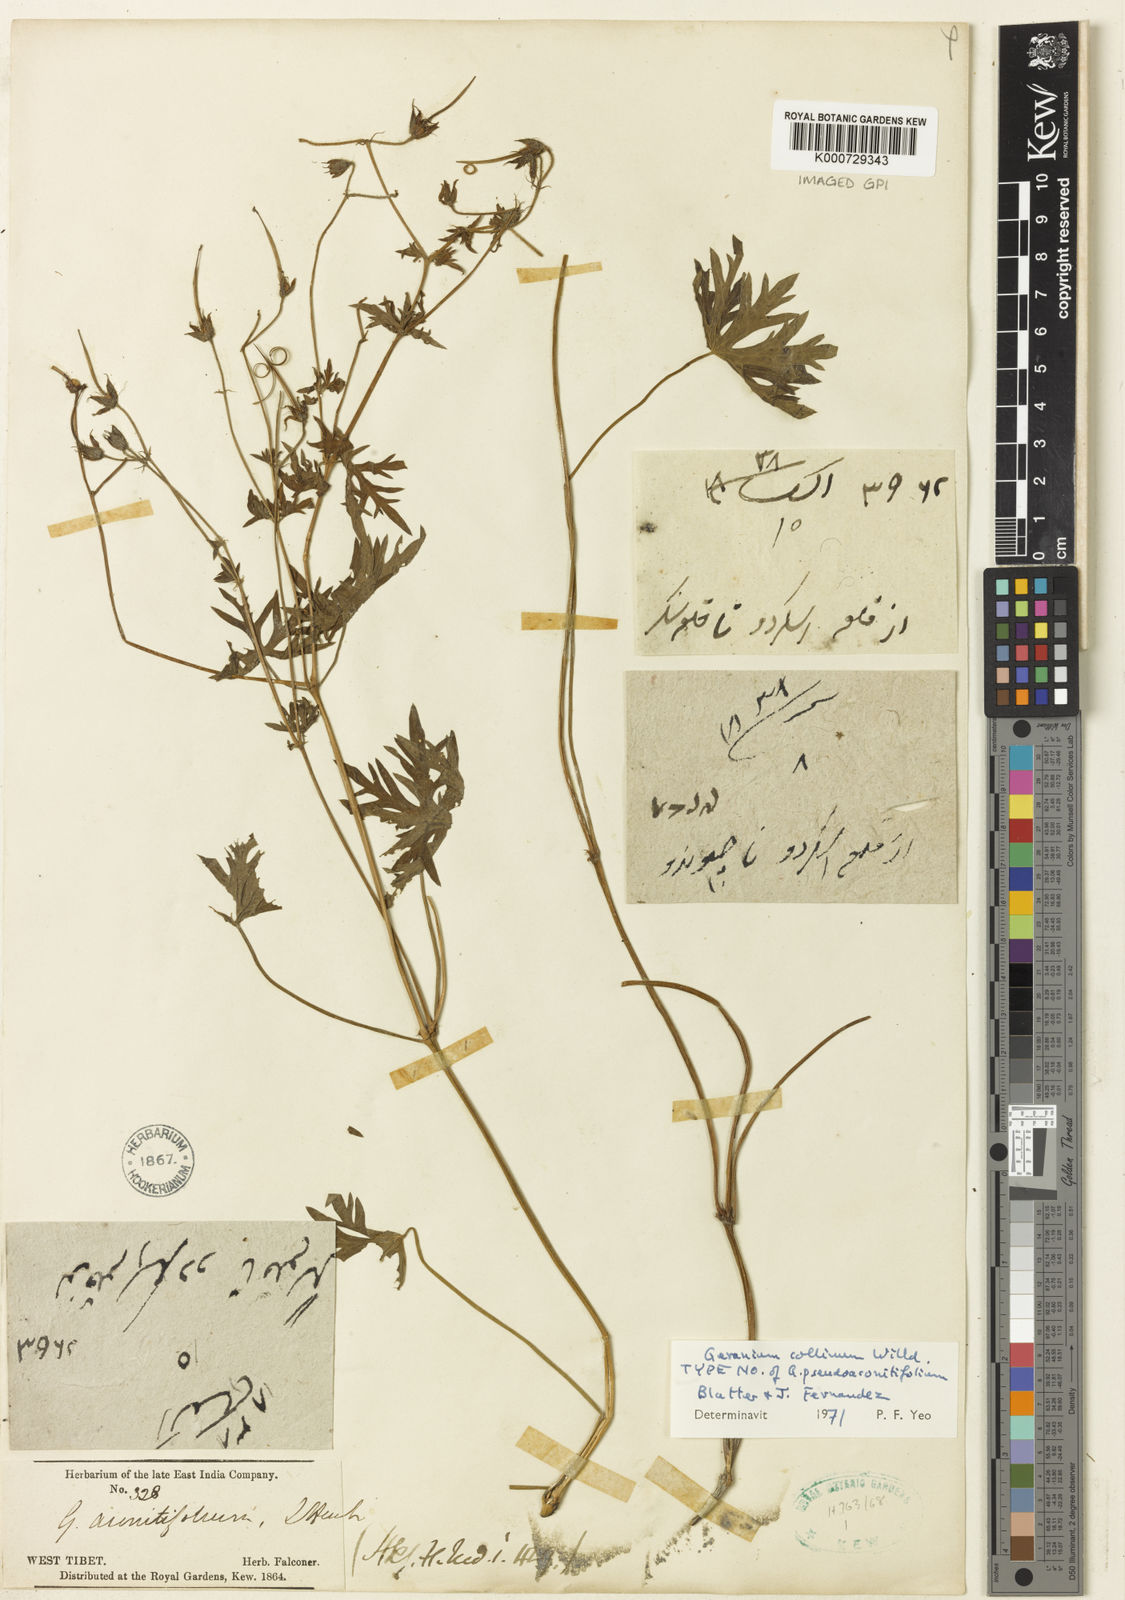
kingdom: Plantae
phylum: Tracheophyta
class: Magnoliopsida
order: Geraniales
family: Geraniaceae
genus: Geranium
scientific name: Geranium collinum
